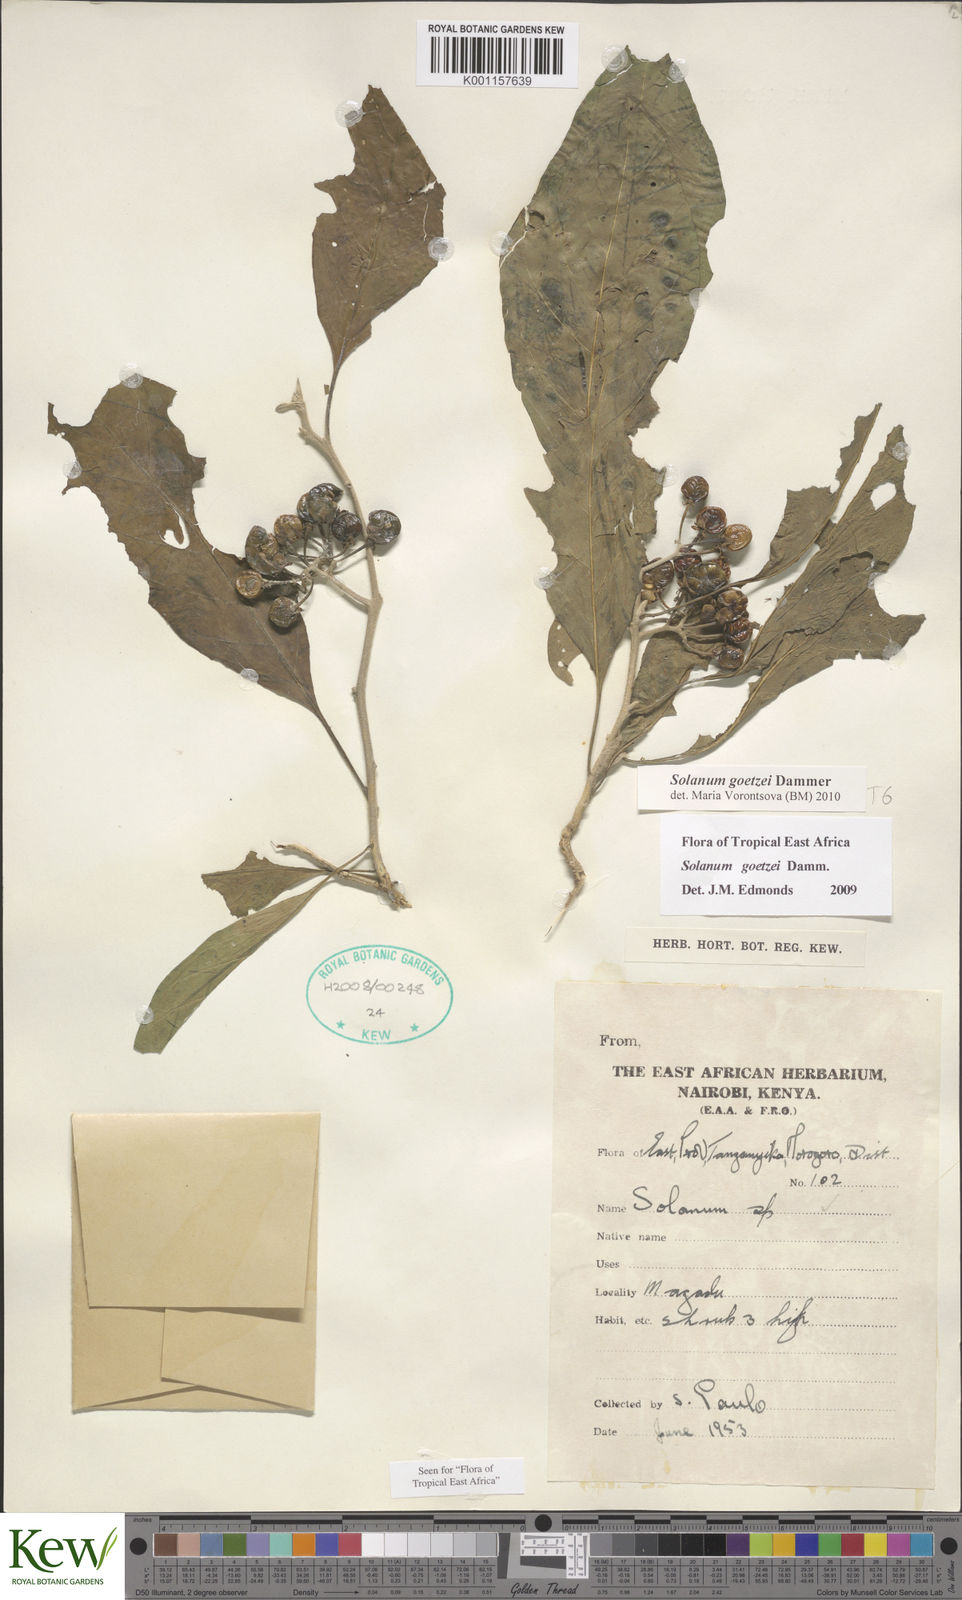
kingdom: Plantae
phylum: Tracheophyta
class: Magnoliopsida
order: Solanales
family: Solanaceae
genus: Solanum
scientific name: Solanum goetzei
